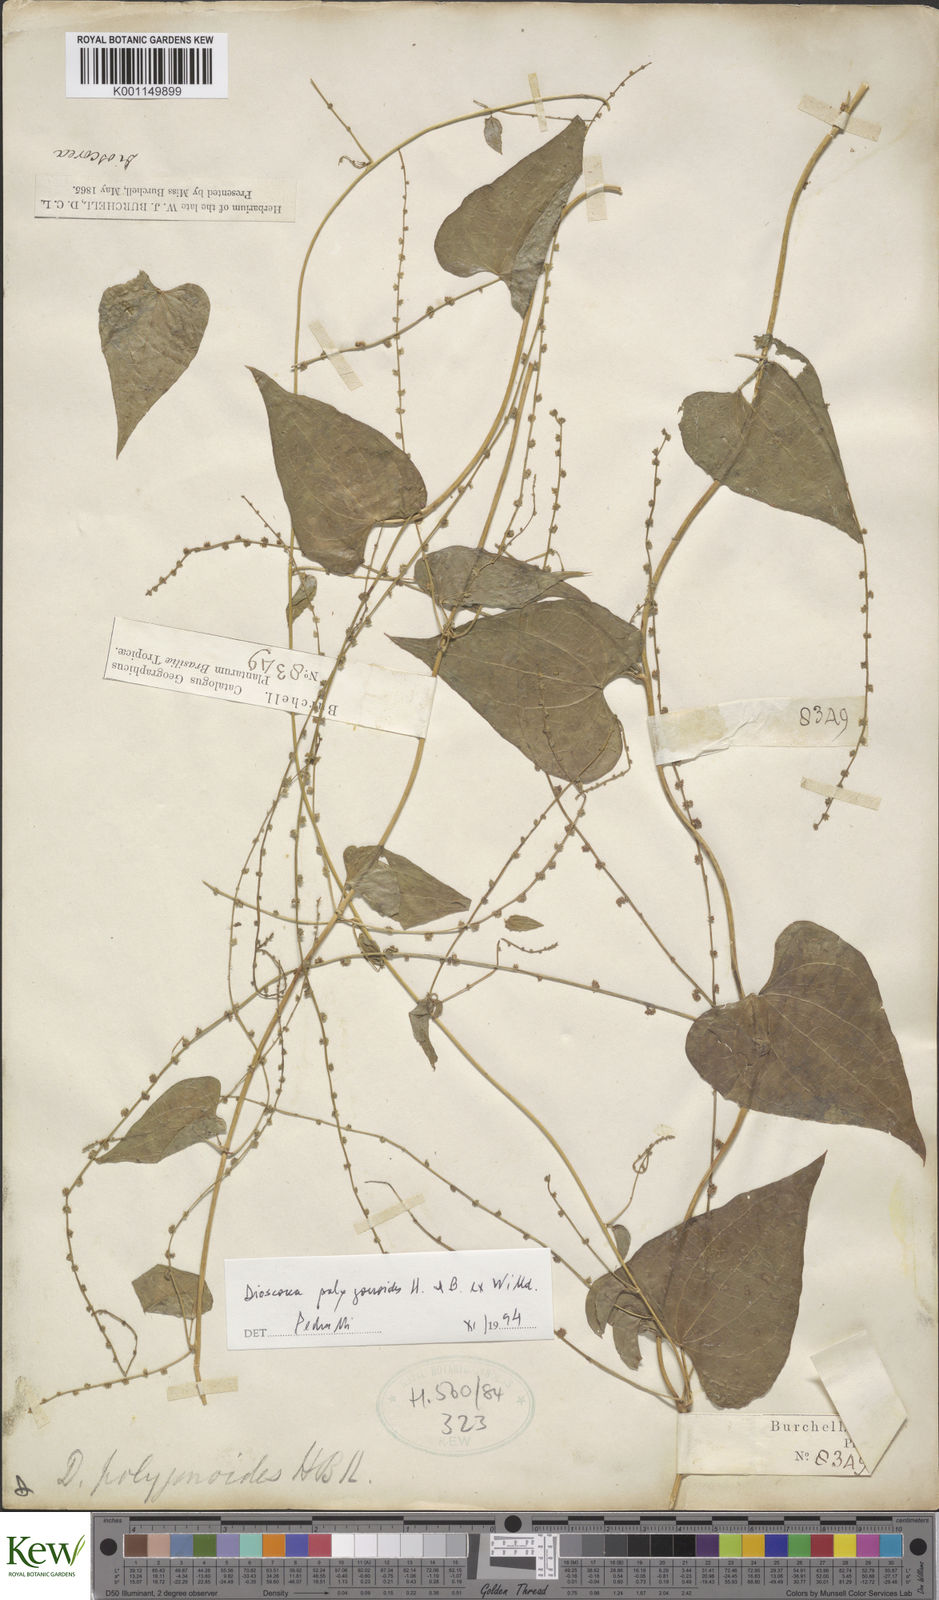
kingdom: Plantae
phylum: Tracheophyta
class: Liliopsida
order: Dioscoreales
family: Dioscoreaceae
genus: Dioscorea
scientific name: Dioscorea polygonoides
